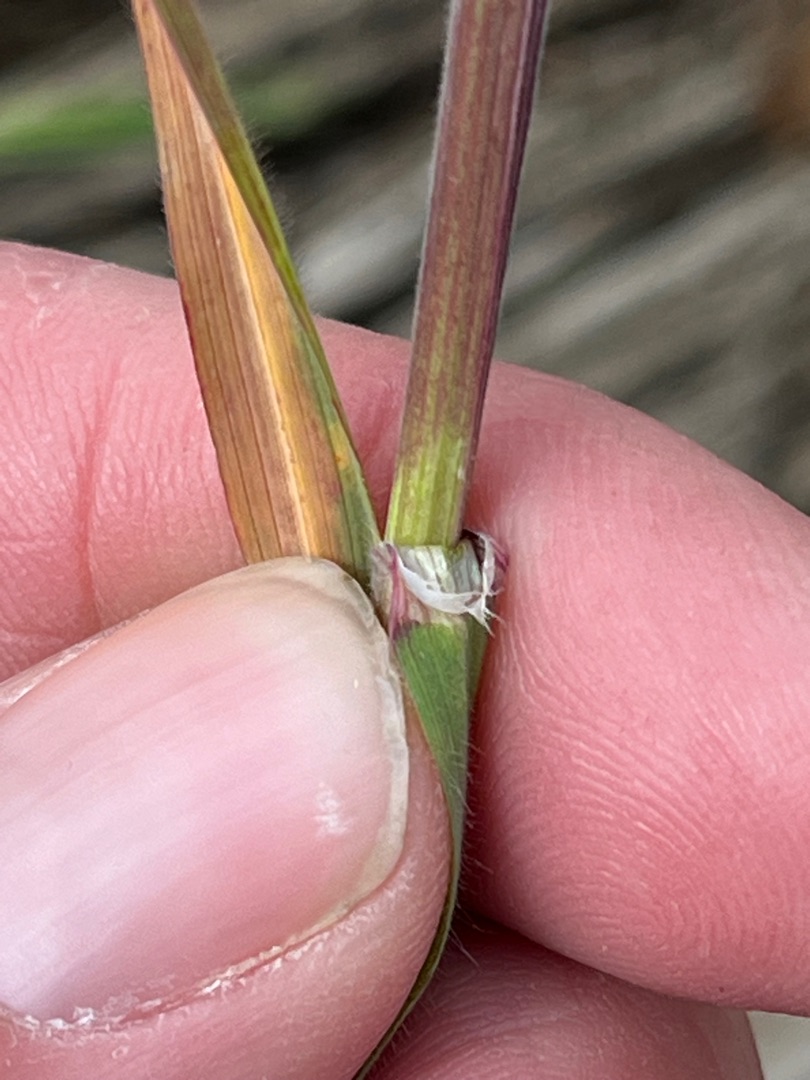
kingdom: Plantae
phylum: Tracheophyta
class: Liliopsida
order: Poales
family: Poaceae
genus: Bromus
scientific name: Bromus sterilis
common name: Gold hejre
